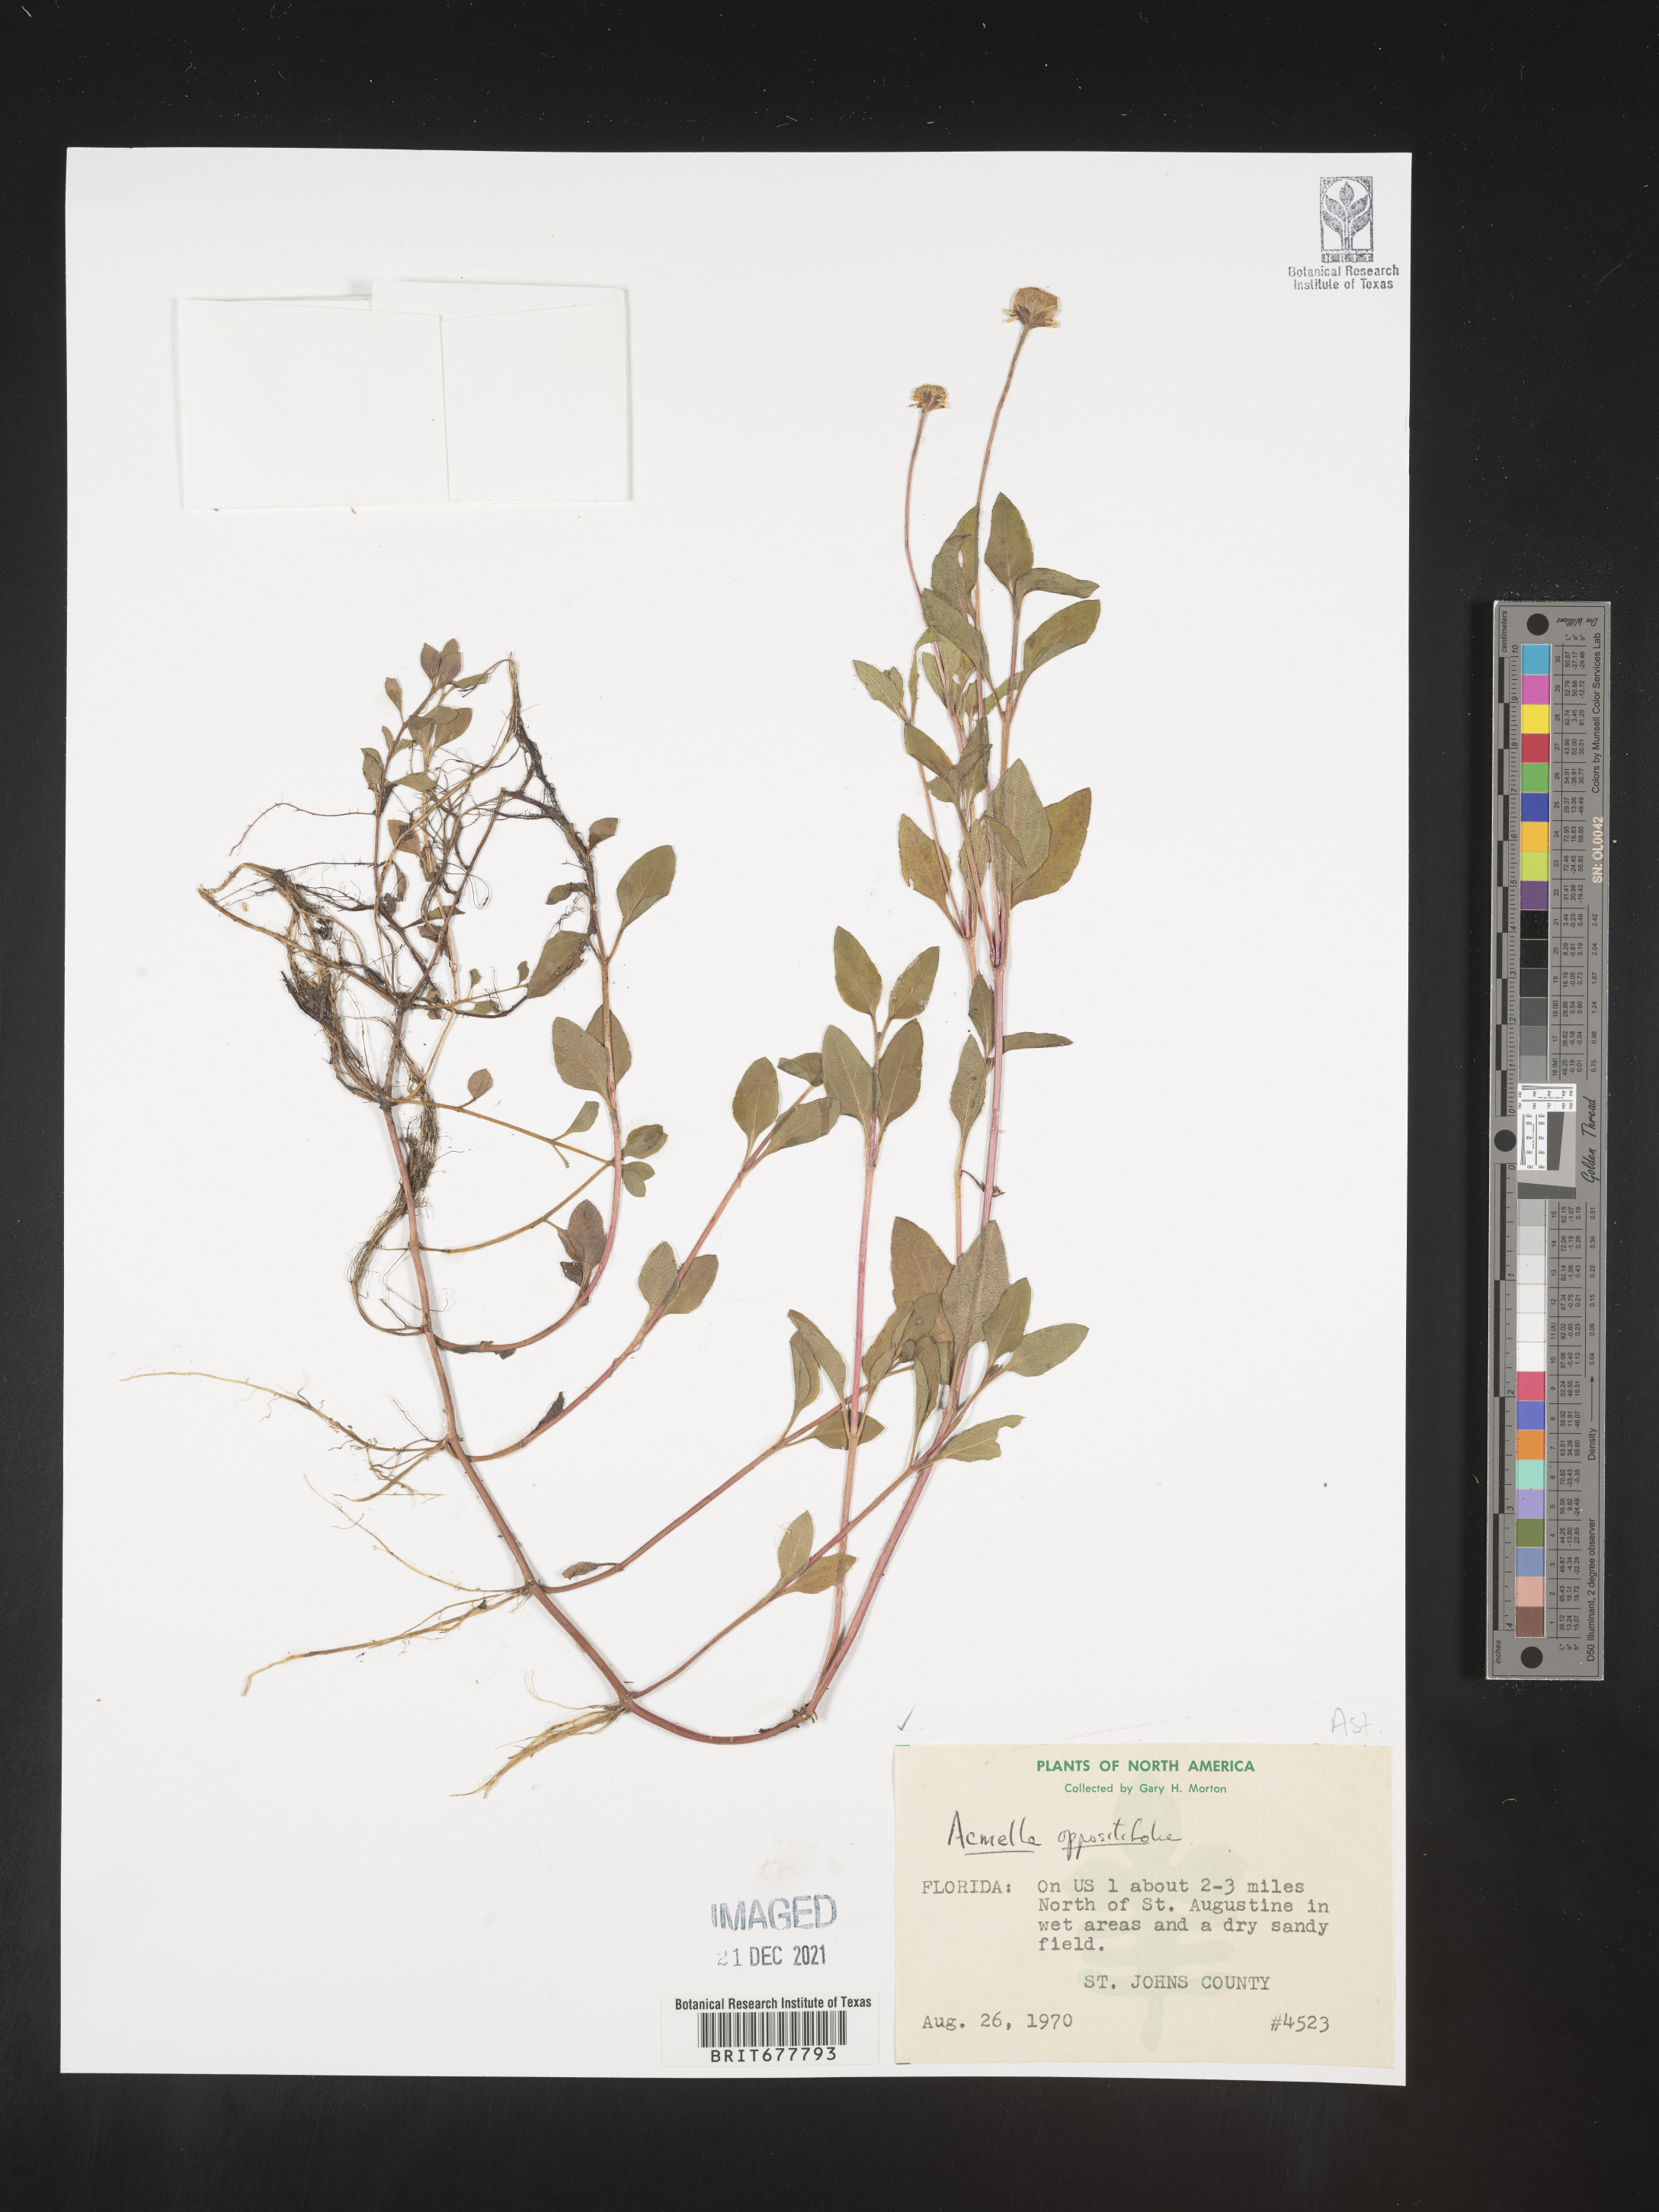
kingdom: Plantae
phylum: Tracheophyta
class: Magnoliopsida
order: Asterales
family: Asteraceae
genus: Spilanthes
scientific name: Spilanthes
